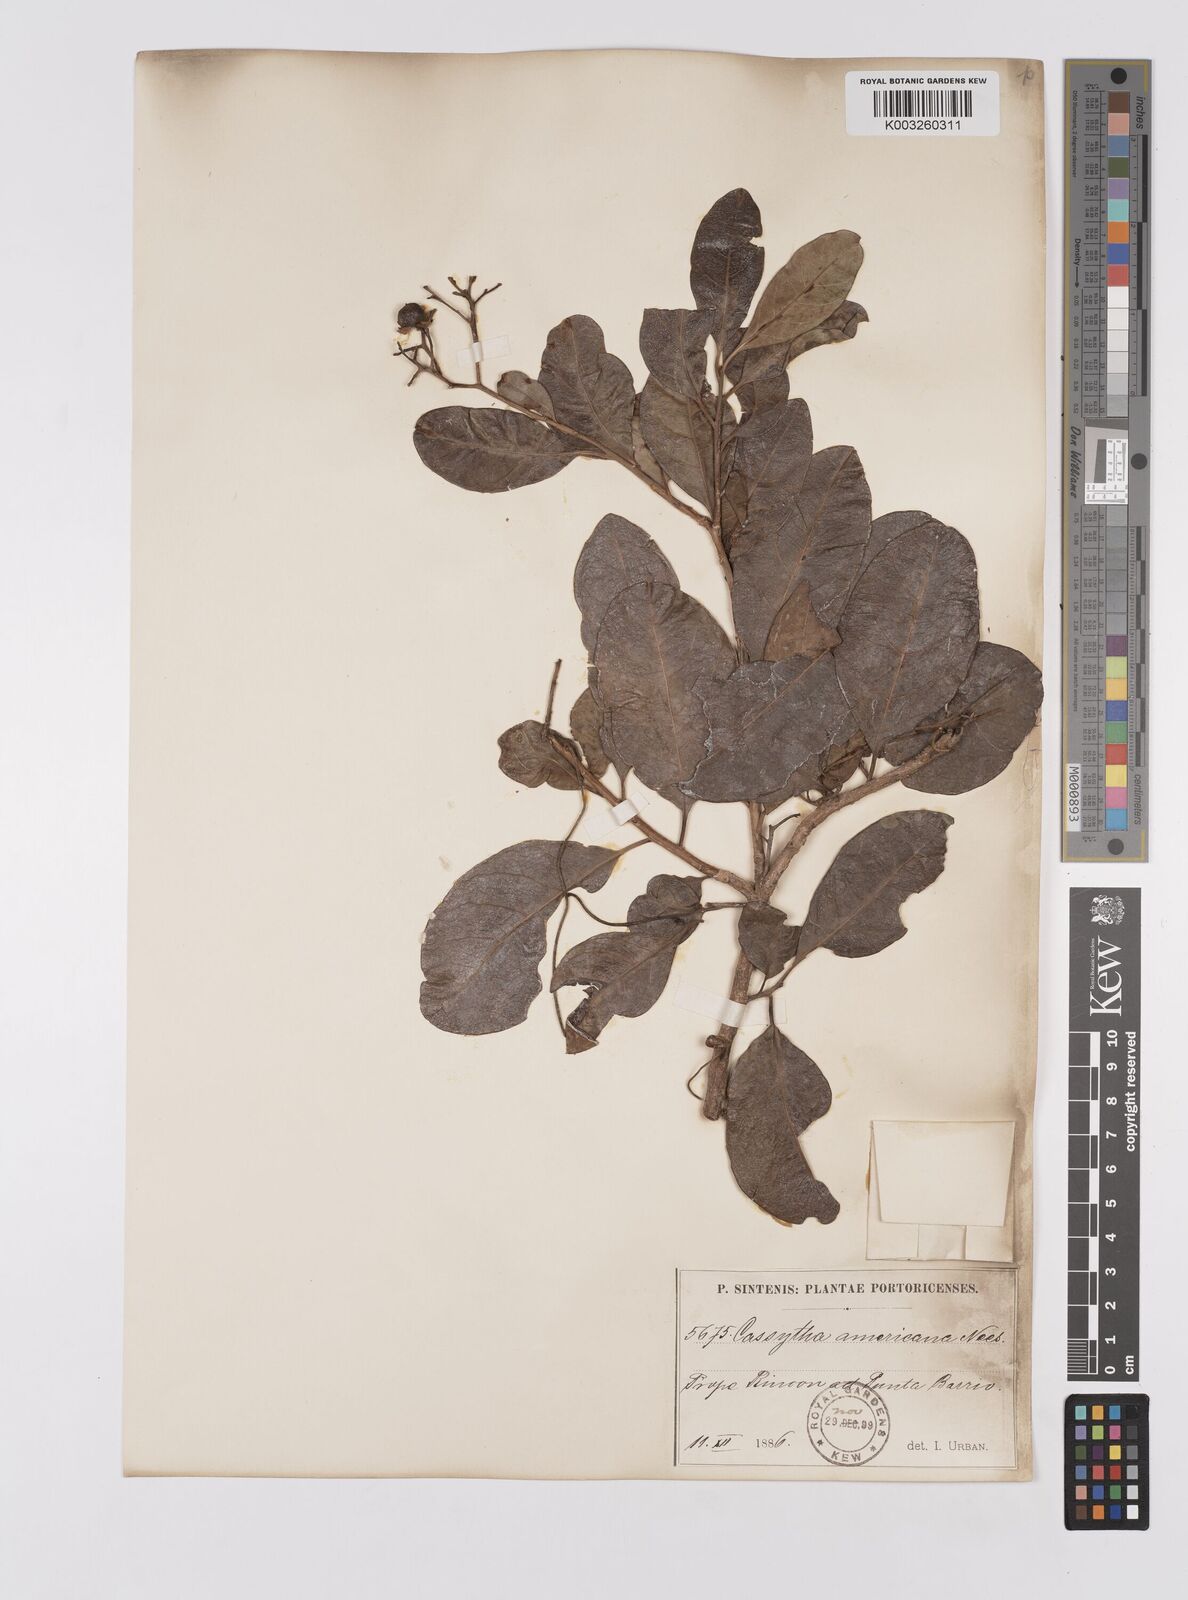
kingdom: Plantae
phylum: Tracheophyta
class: Magnoliopsida
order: Laurales
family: Lauraceae
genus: Cassytha
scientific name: Cassytha filiformis
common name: Dodder-laurel
